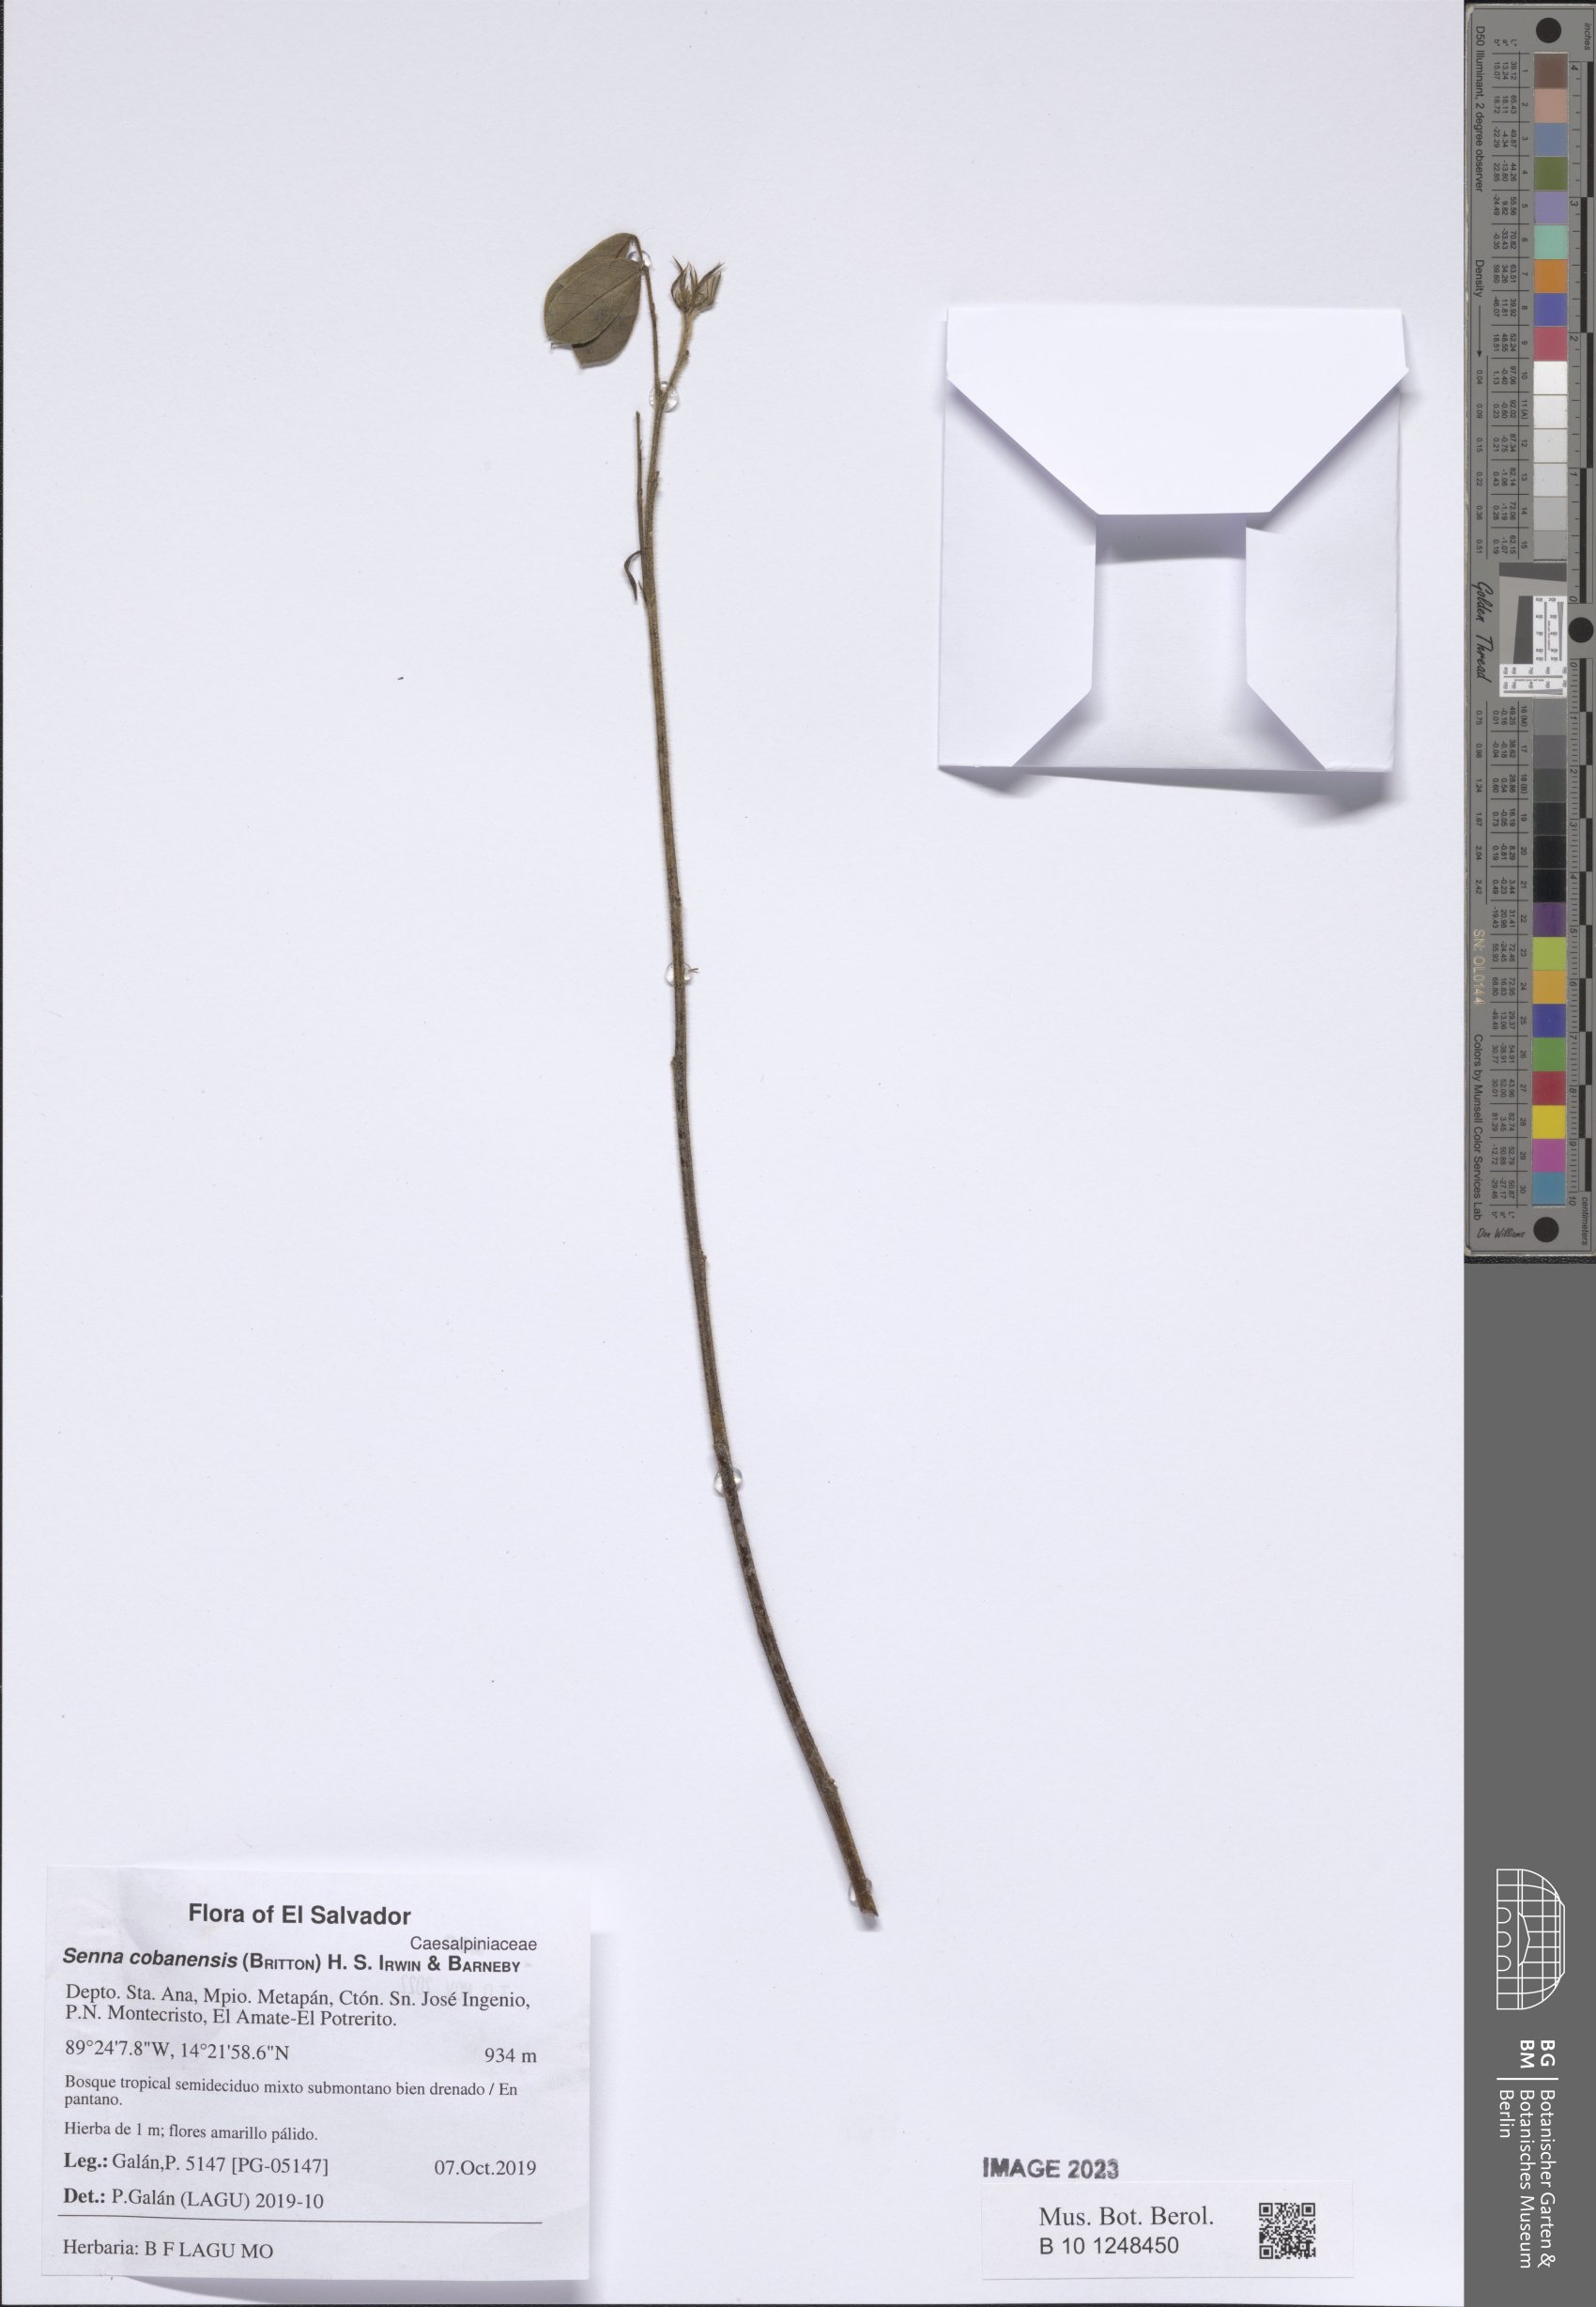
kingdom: Plantae
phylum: Tracheophyta
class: Magnoliopsida
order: Fabales
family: Fabaceae
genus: Senna
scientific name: Senna cobanensis
